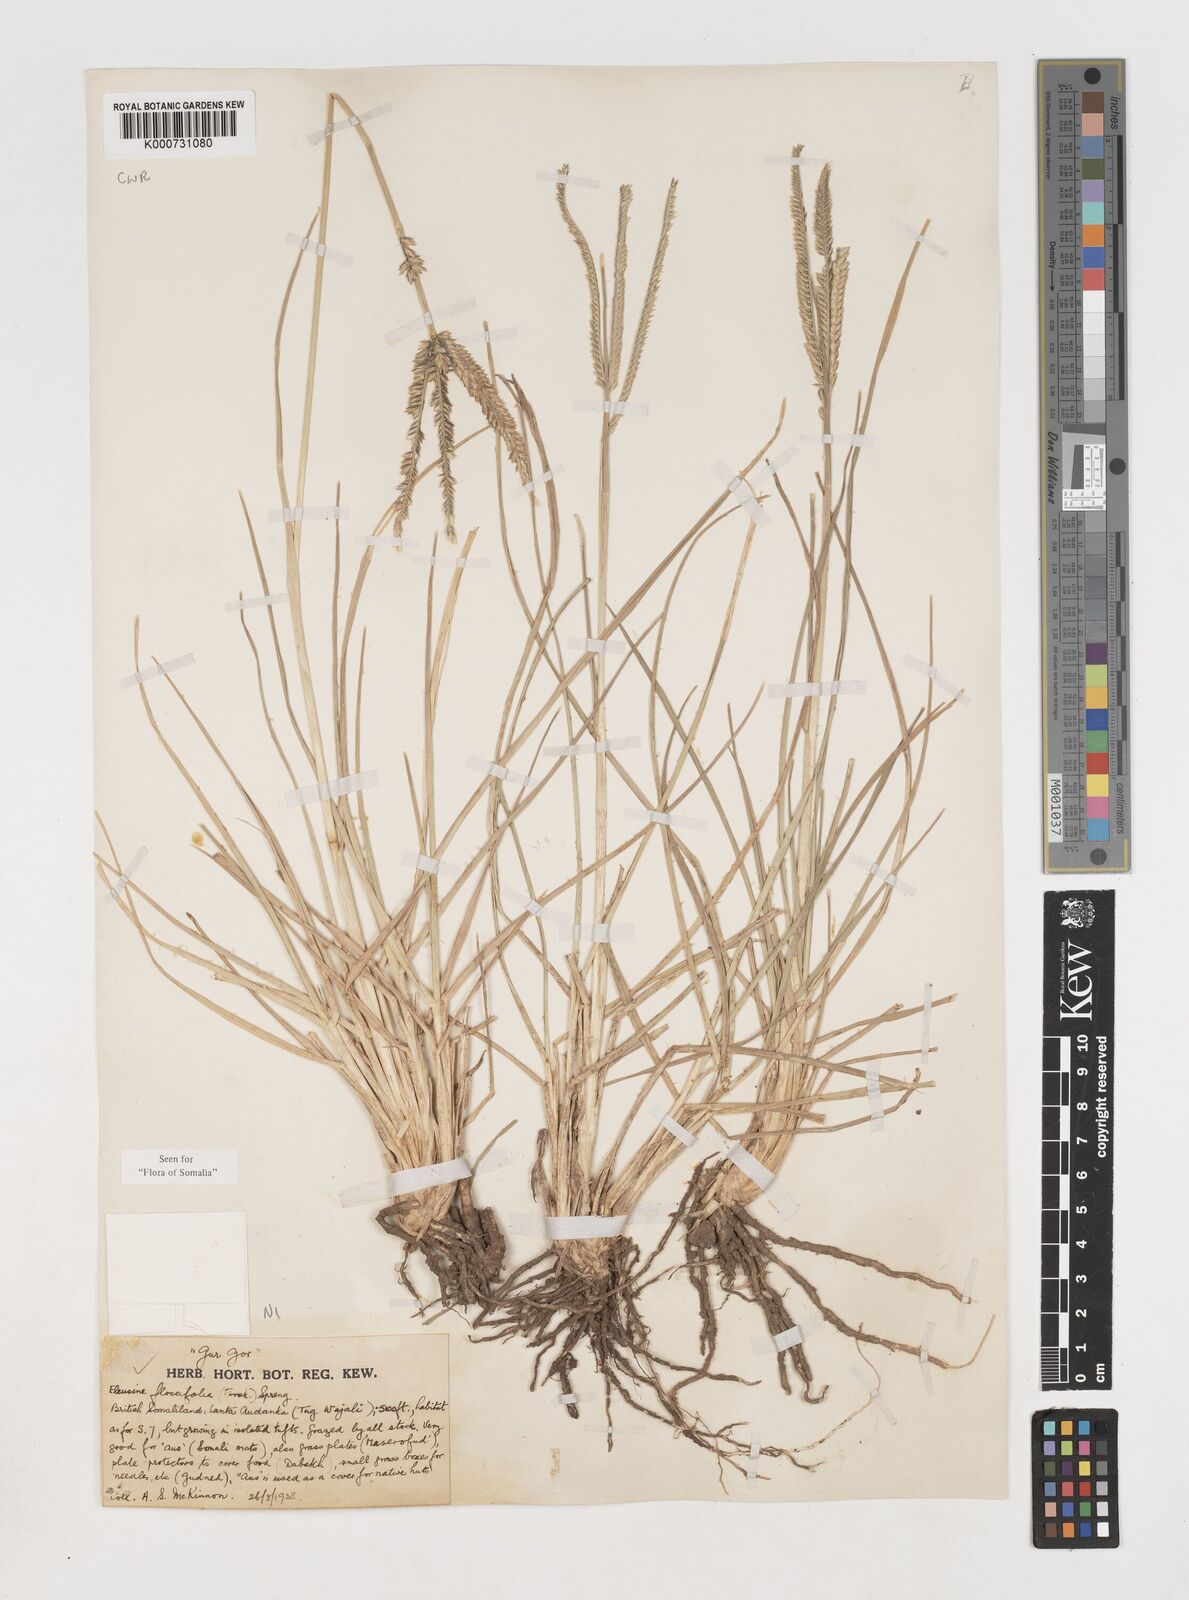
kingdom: Plantae
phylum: Tracheophyta
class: Liliopsida
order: Poales
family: Poaceae
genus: Eleusine
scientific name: Eleusine floccifolia
